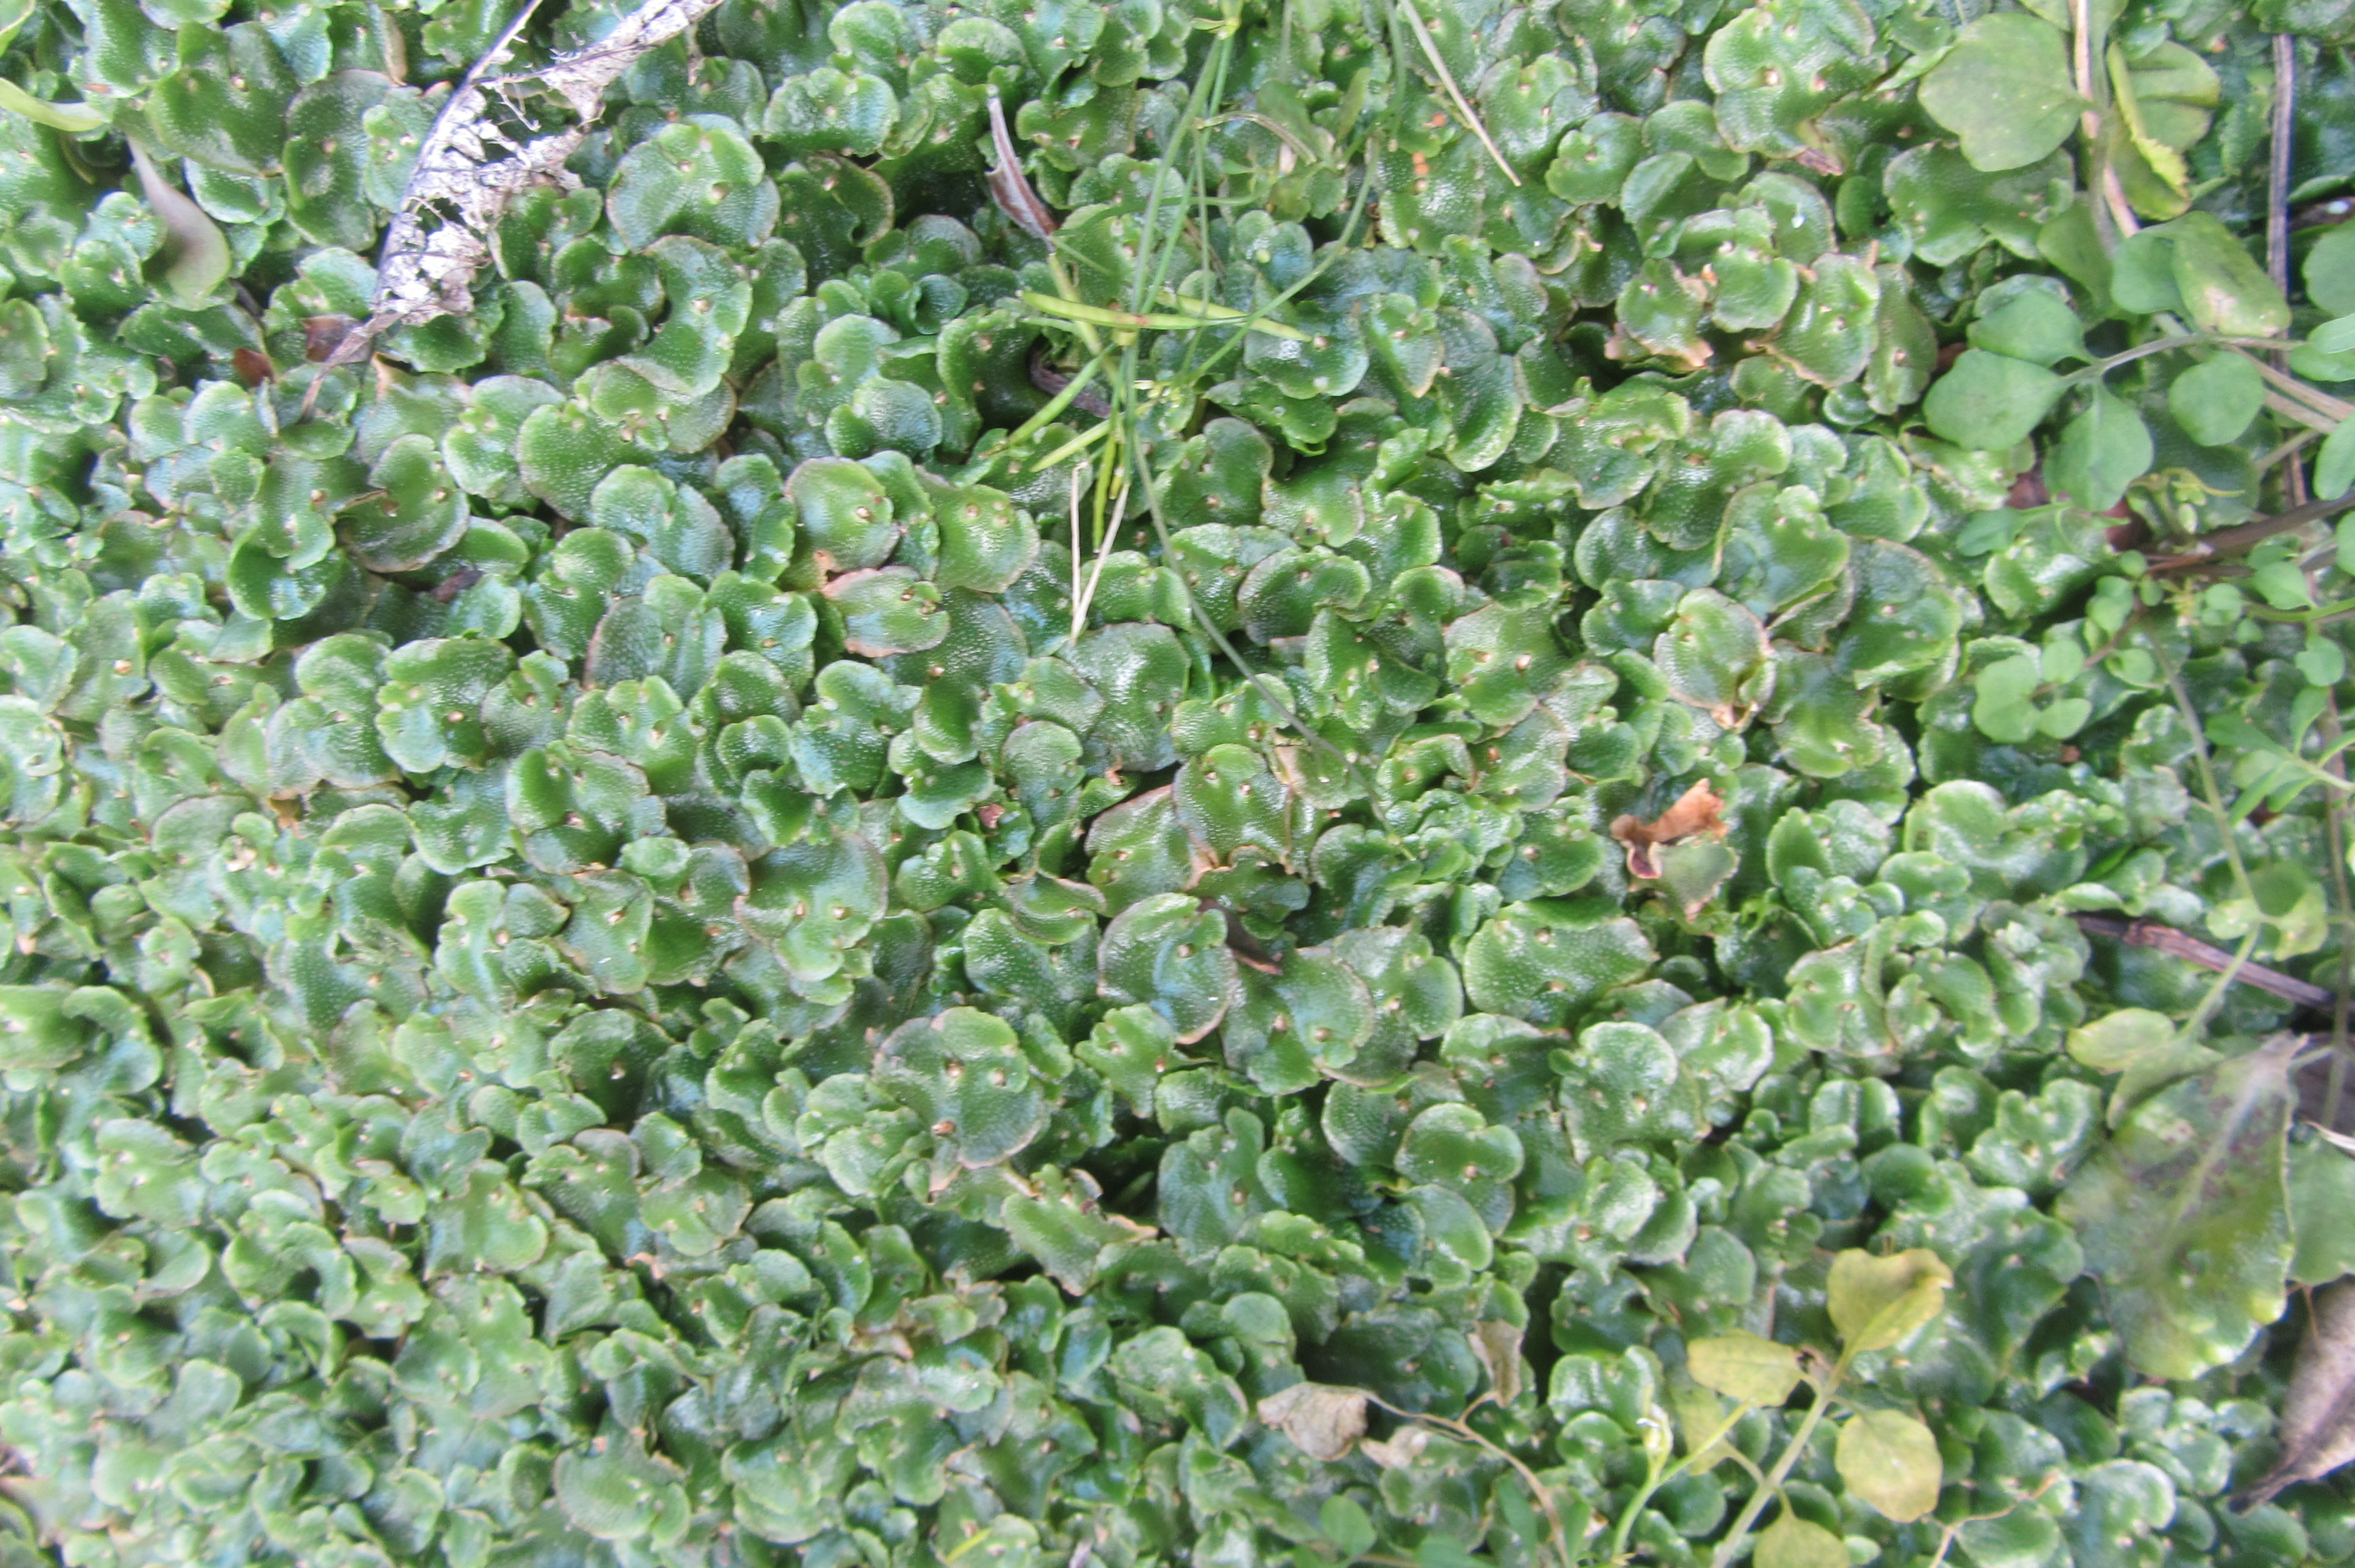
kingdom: Plantae
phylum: Marchantiophyta
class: Marchantiopsida
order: Lunulariales
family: Lunulariaceae
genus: Lunularia
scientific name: Lunularia cruciata
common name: Crescent-cup liverwort
